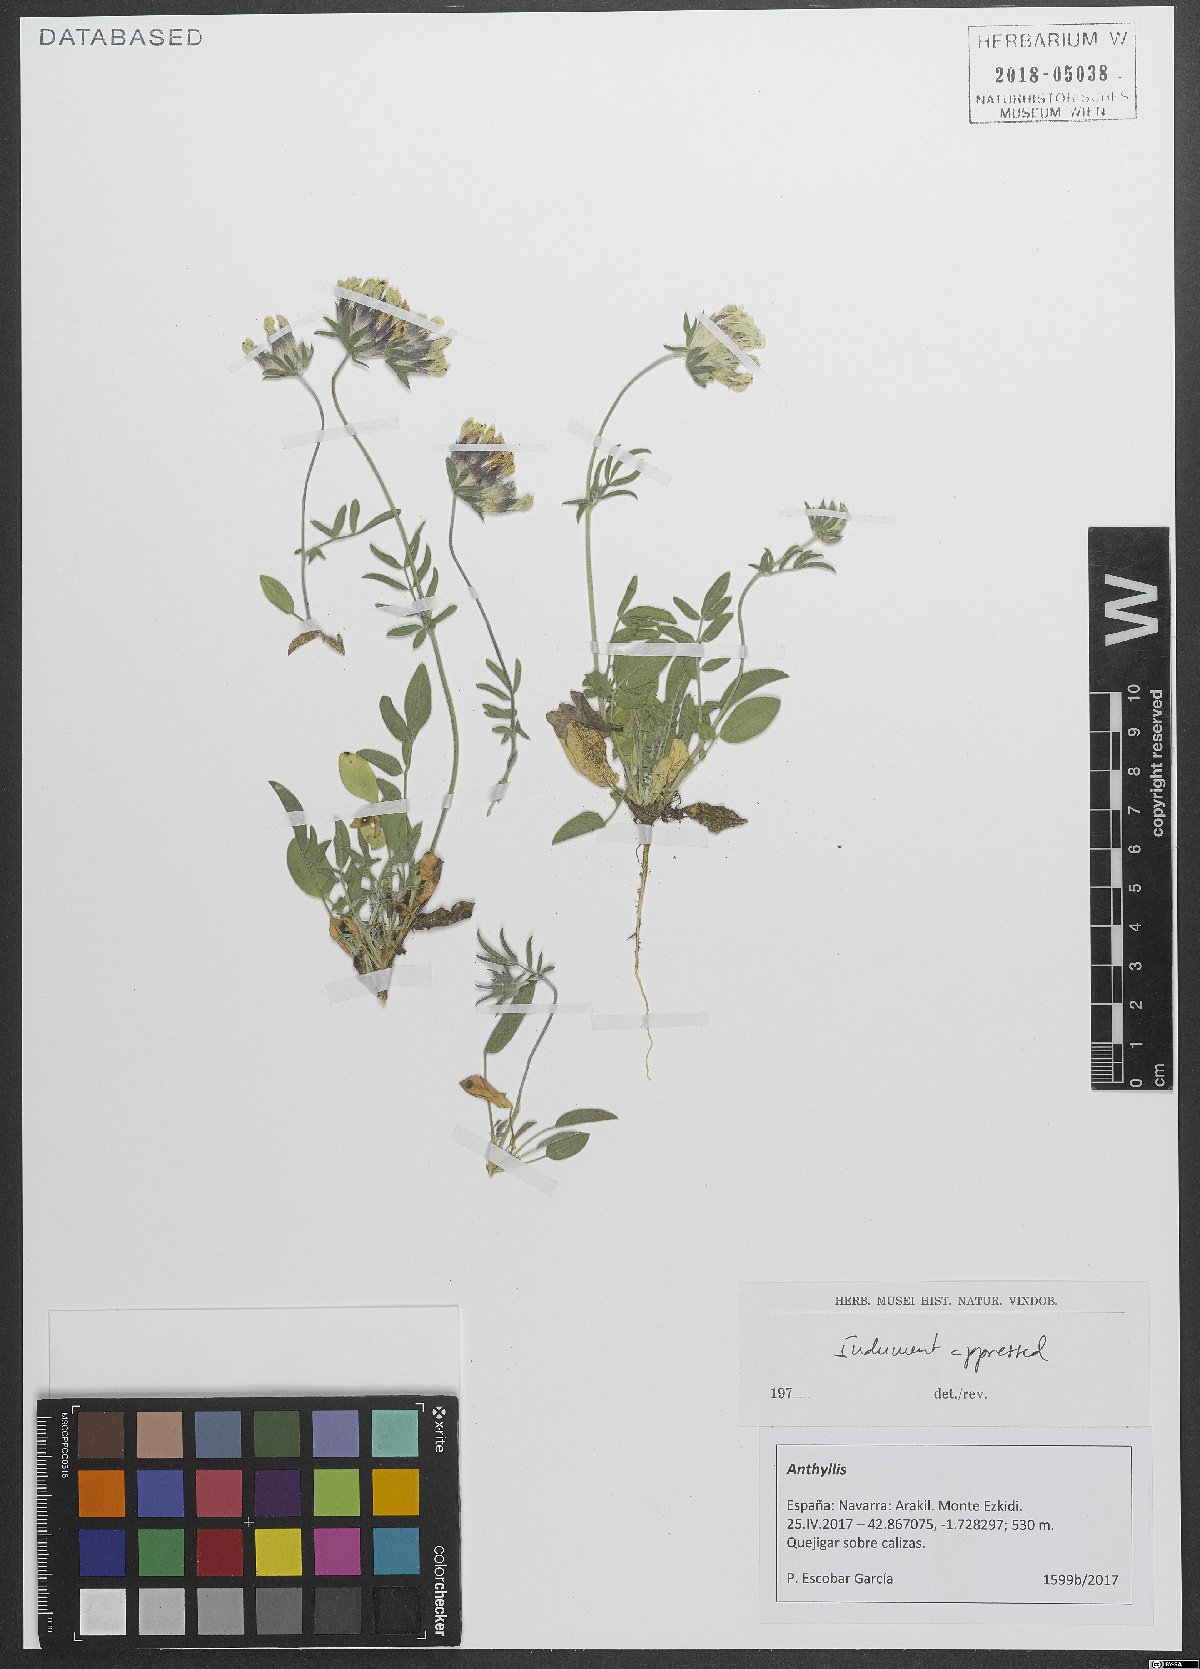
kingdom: Plantae
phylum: Tracheophyta
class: Magnoliopsida
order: Fabales
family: Fabaceae
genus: Anthyllis
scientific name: Anthyllis
